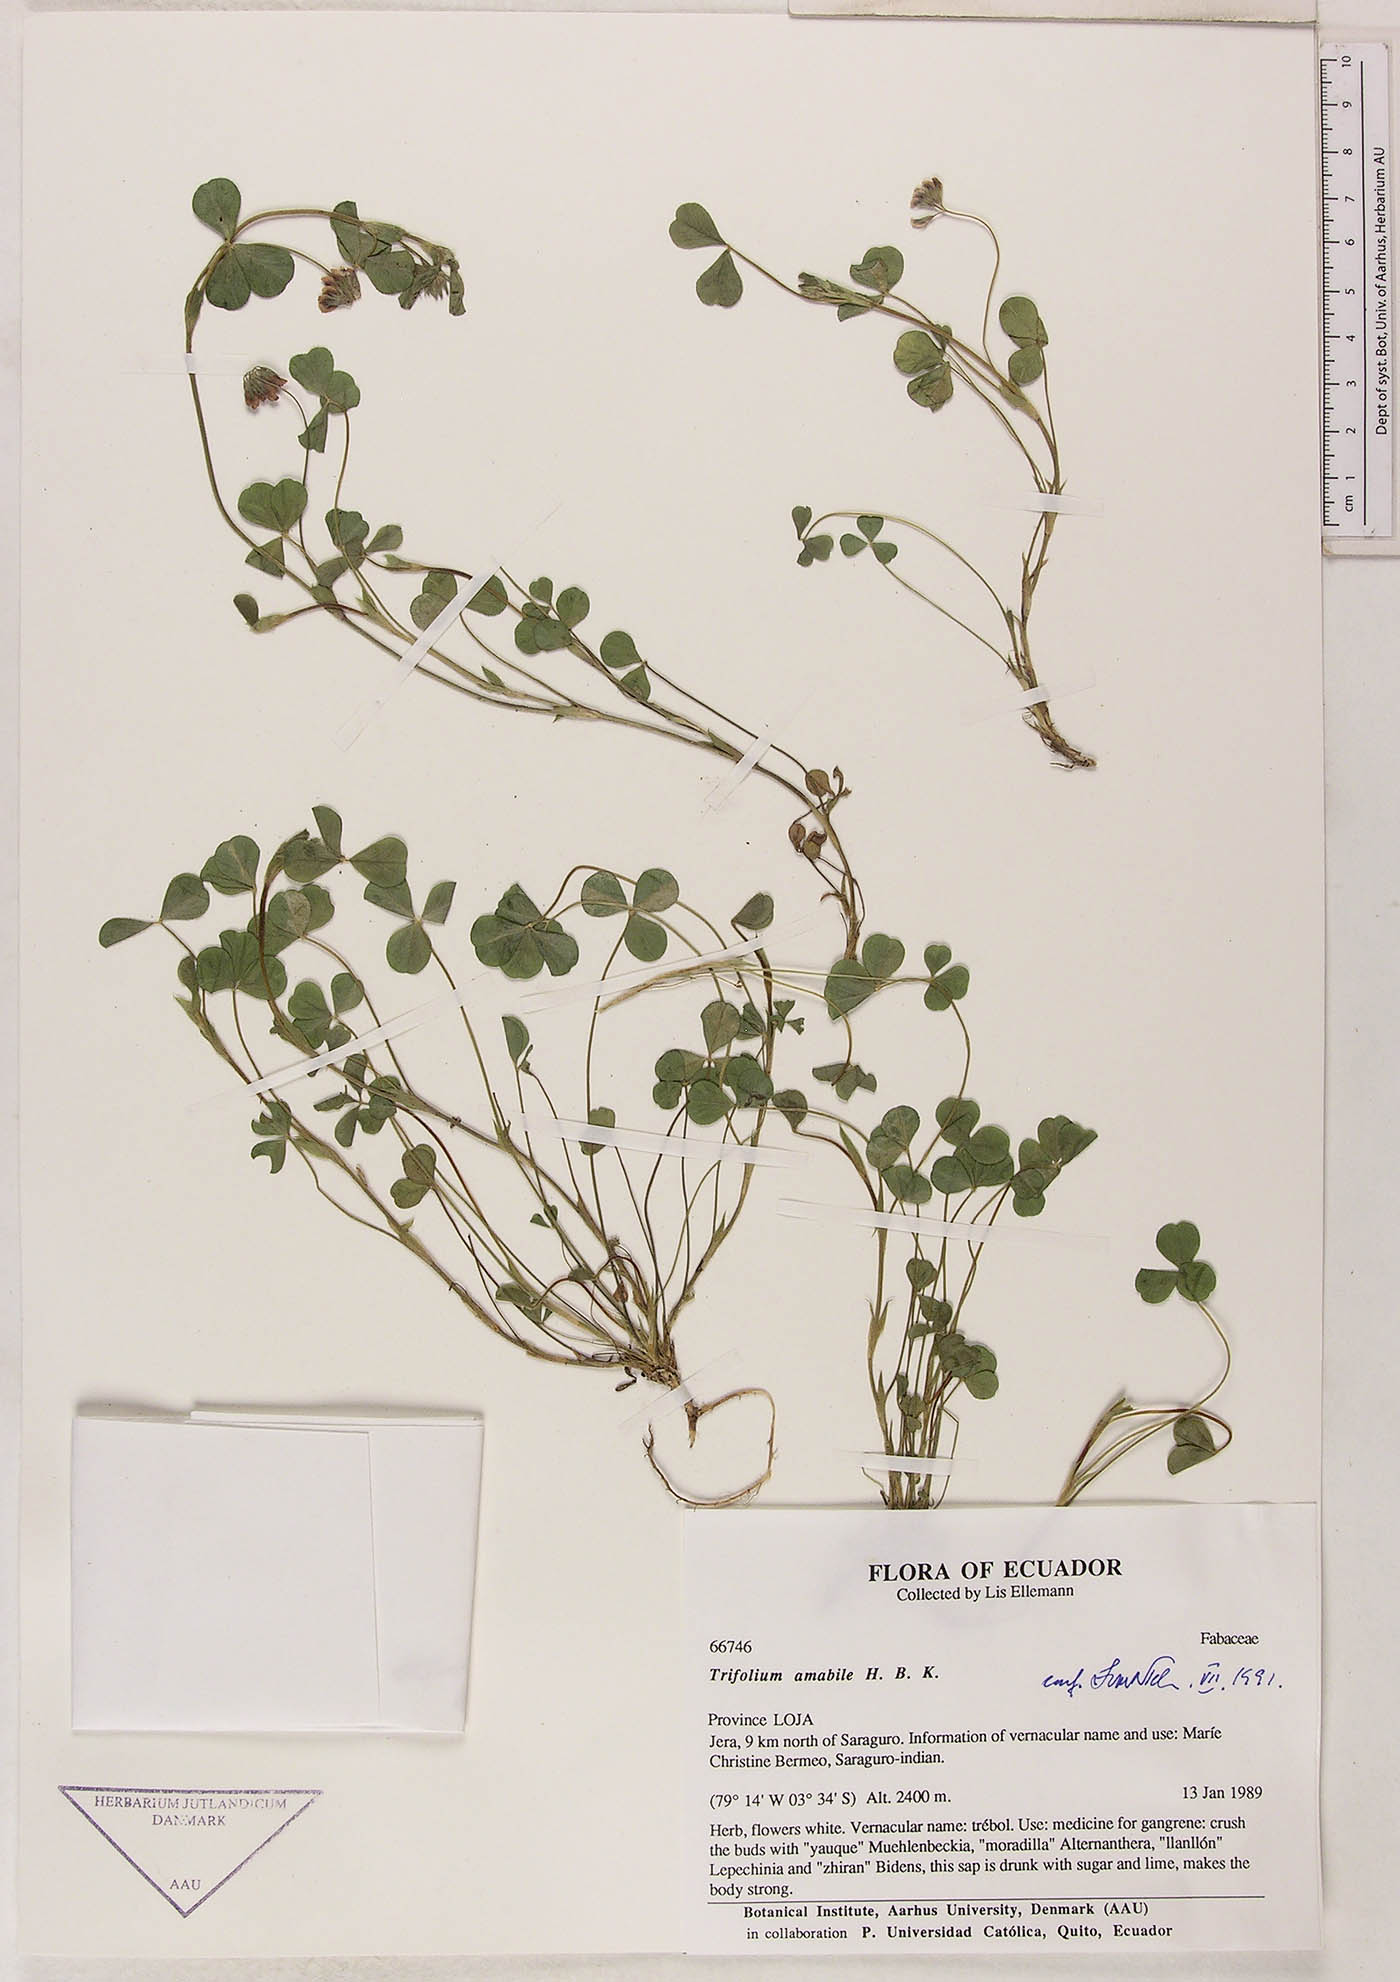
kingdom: Plantae
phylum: Tracheophyta
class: Magnoliopsida
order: Fabales
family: Fabaceae
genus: Trifolium
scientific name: Trifolium amabile
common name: Aztec clover
